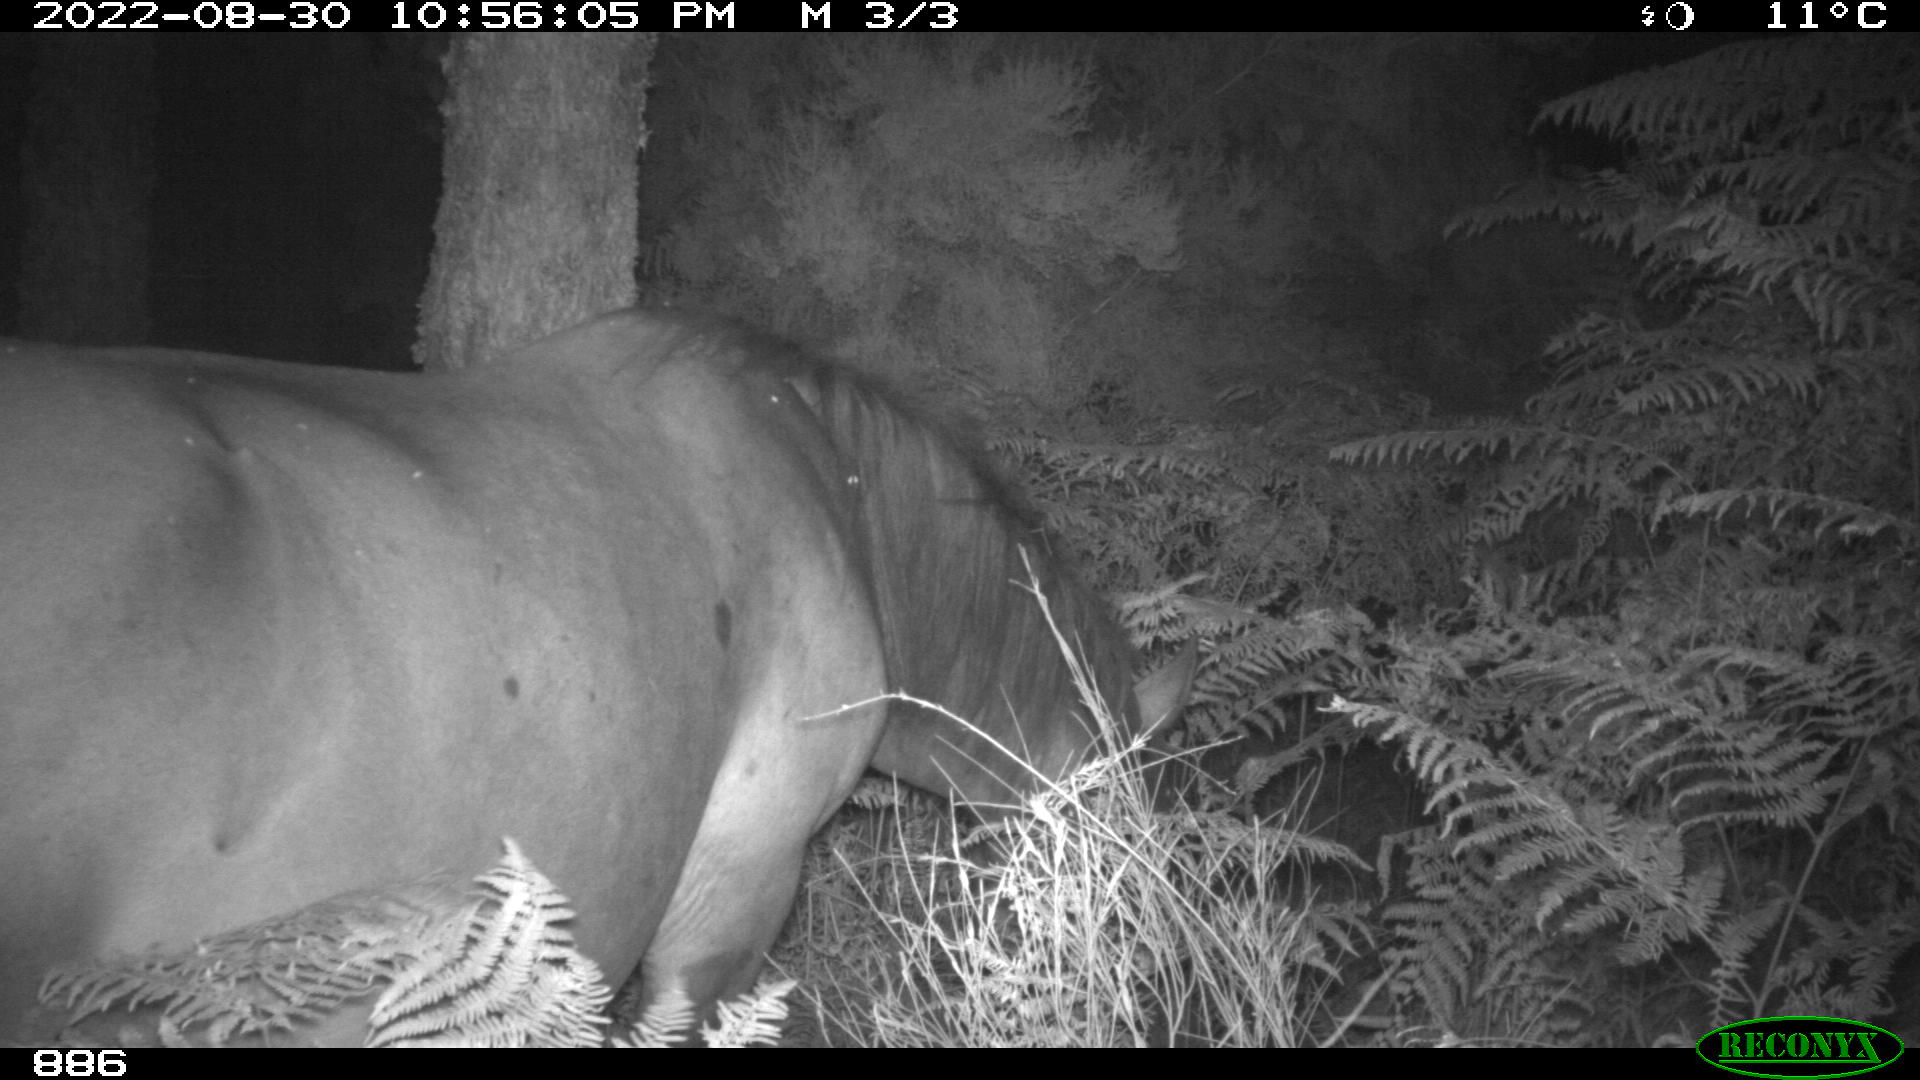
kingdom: Animalia
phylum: Chordata
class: Mammalia
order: Perissodactyla
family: Equidae
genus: Equus
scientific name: Equus caballus
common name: Horse
